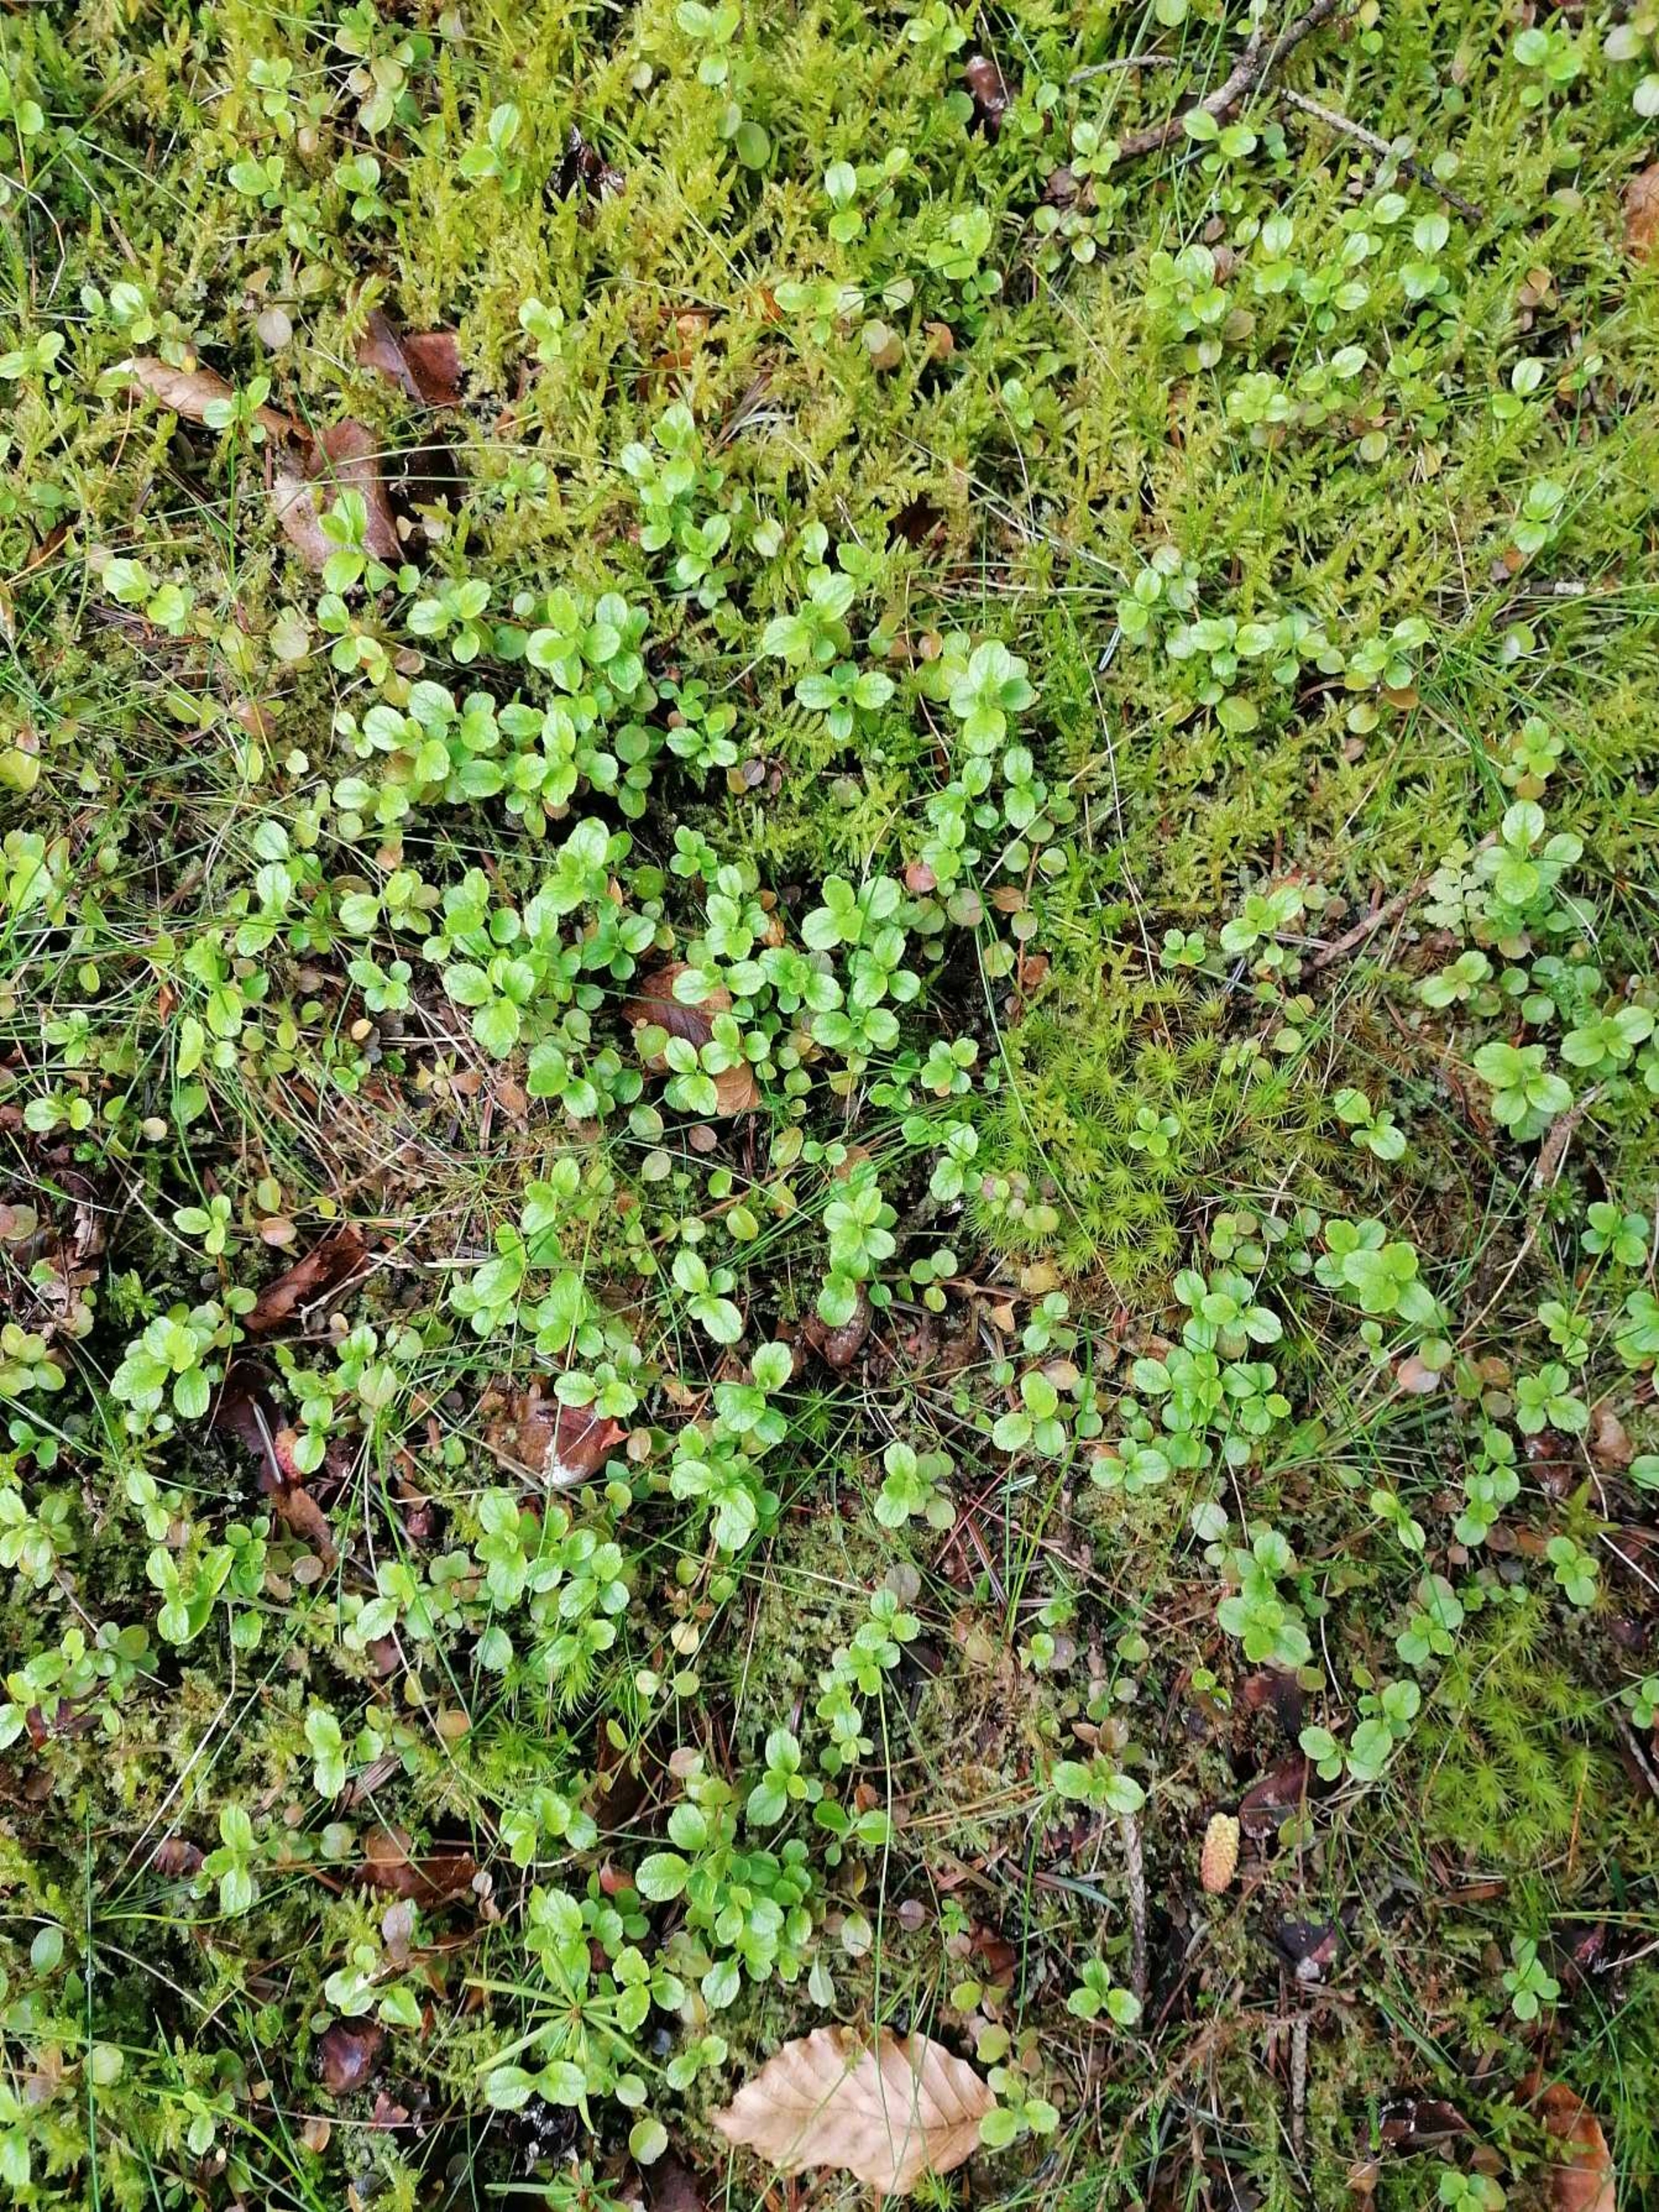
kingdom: Plantae
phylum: Tracheophyta
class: Magnoliopsida
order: Dipsacales
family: Caprifoliaceae
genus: Linnaea
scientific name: Linnaea borealis
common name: Linnæa
